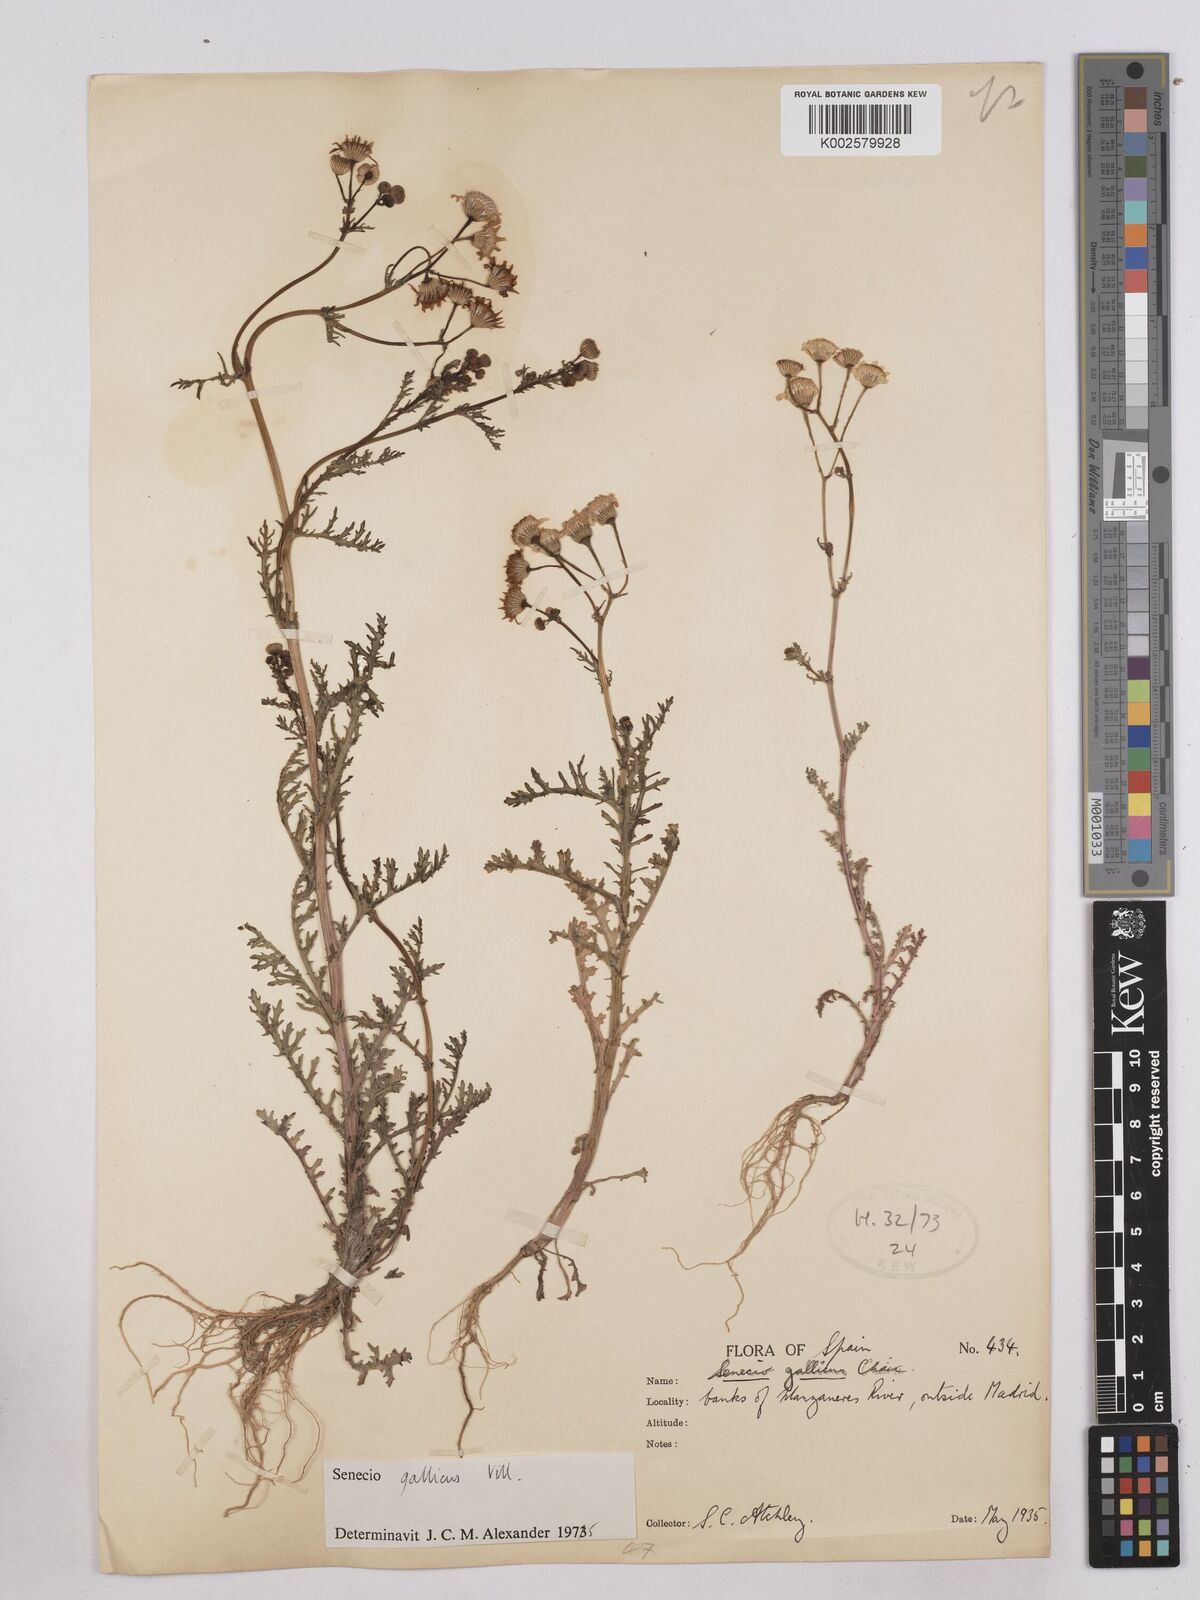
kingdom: Plantae
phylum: Tracheophyta
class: Magnoliopsida
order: Asterales
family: Asteraceae
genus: Senecio
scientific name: Senecio gallicus
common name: French groundsel
